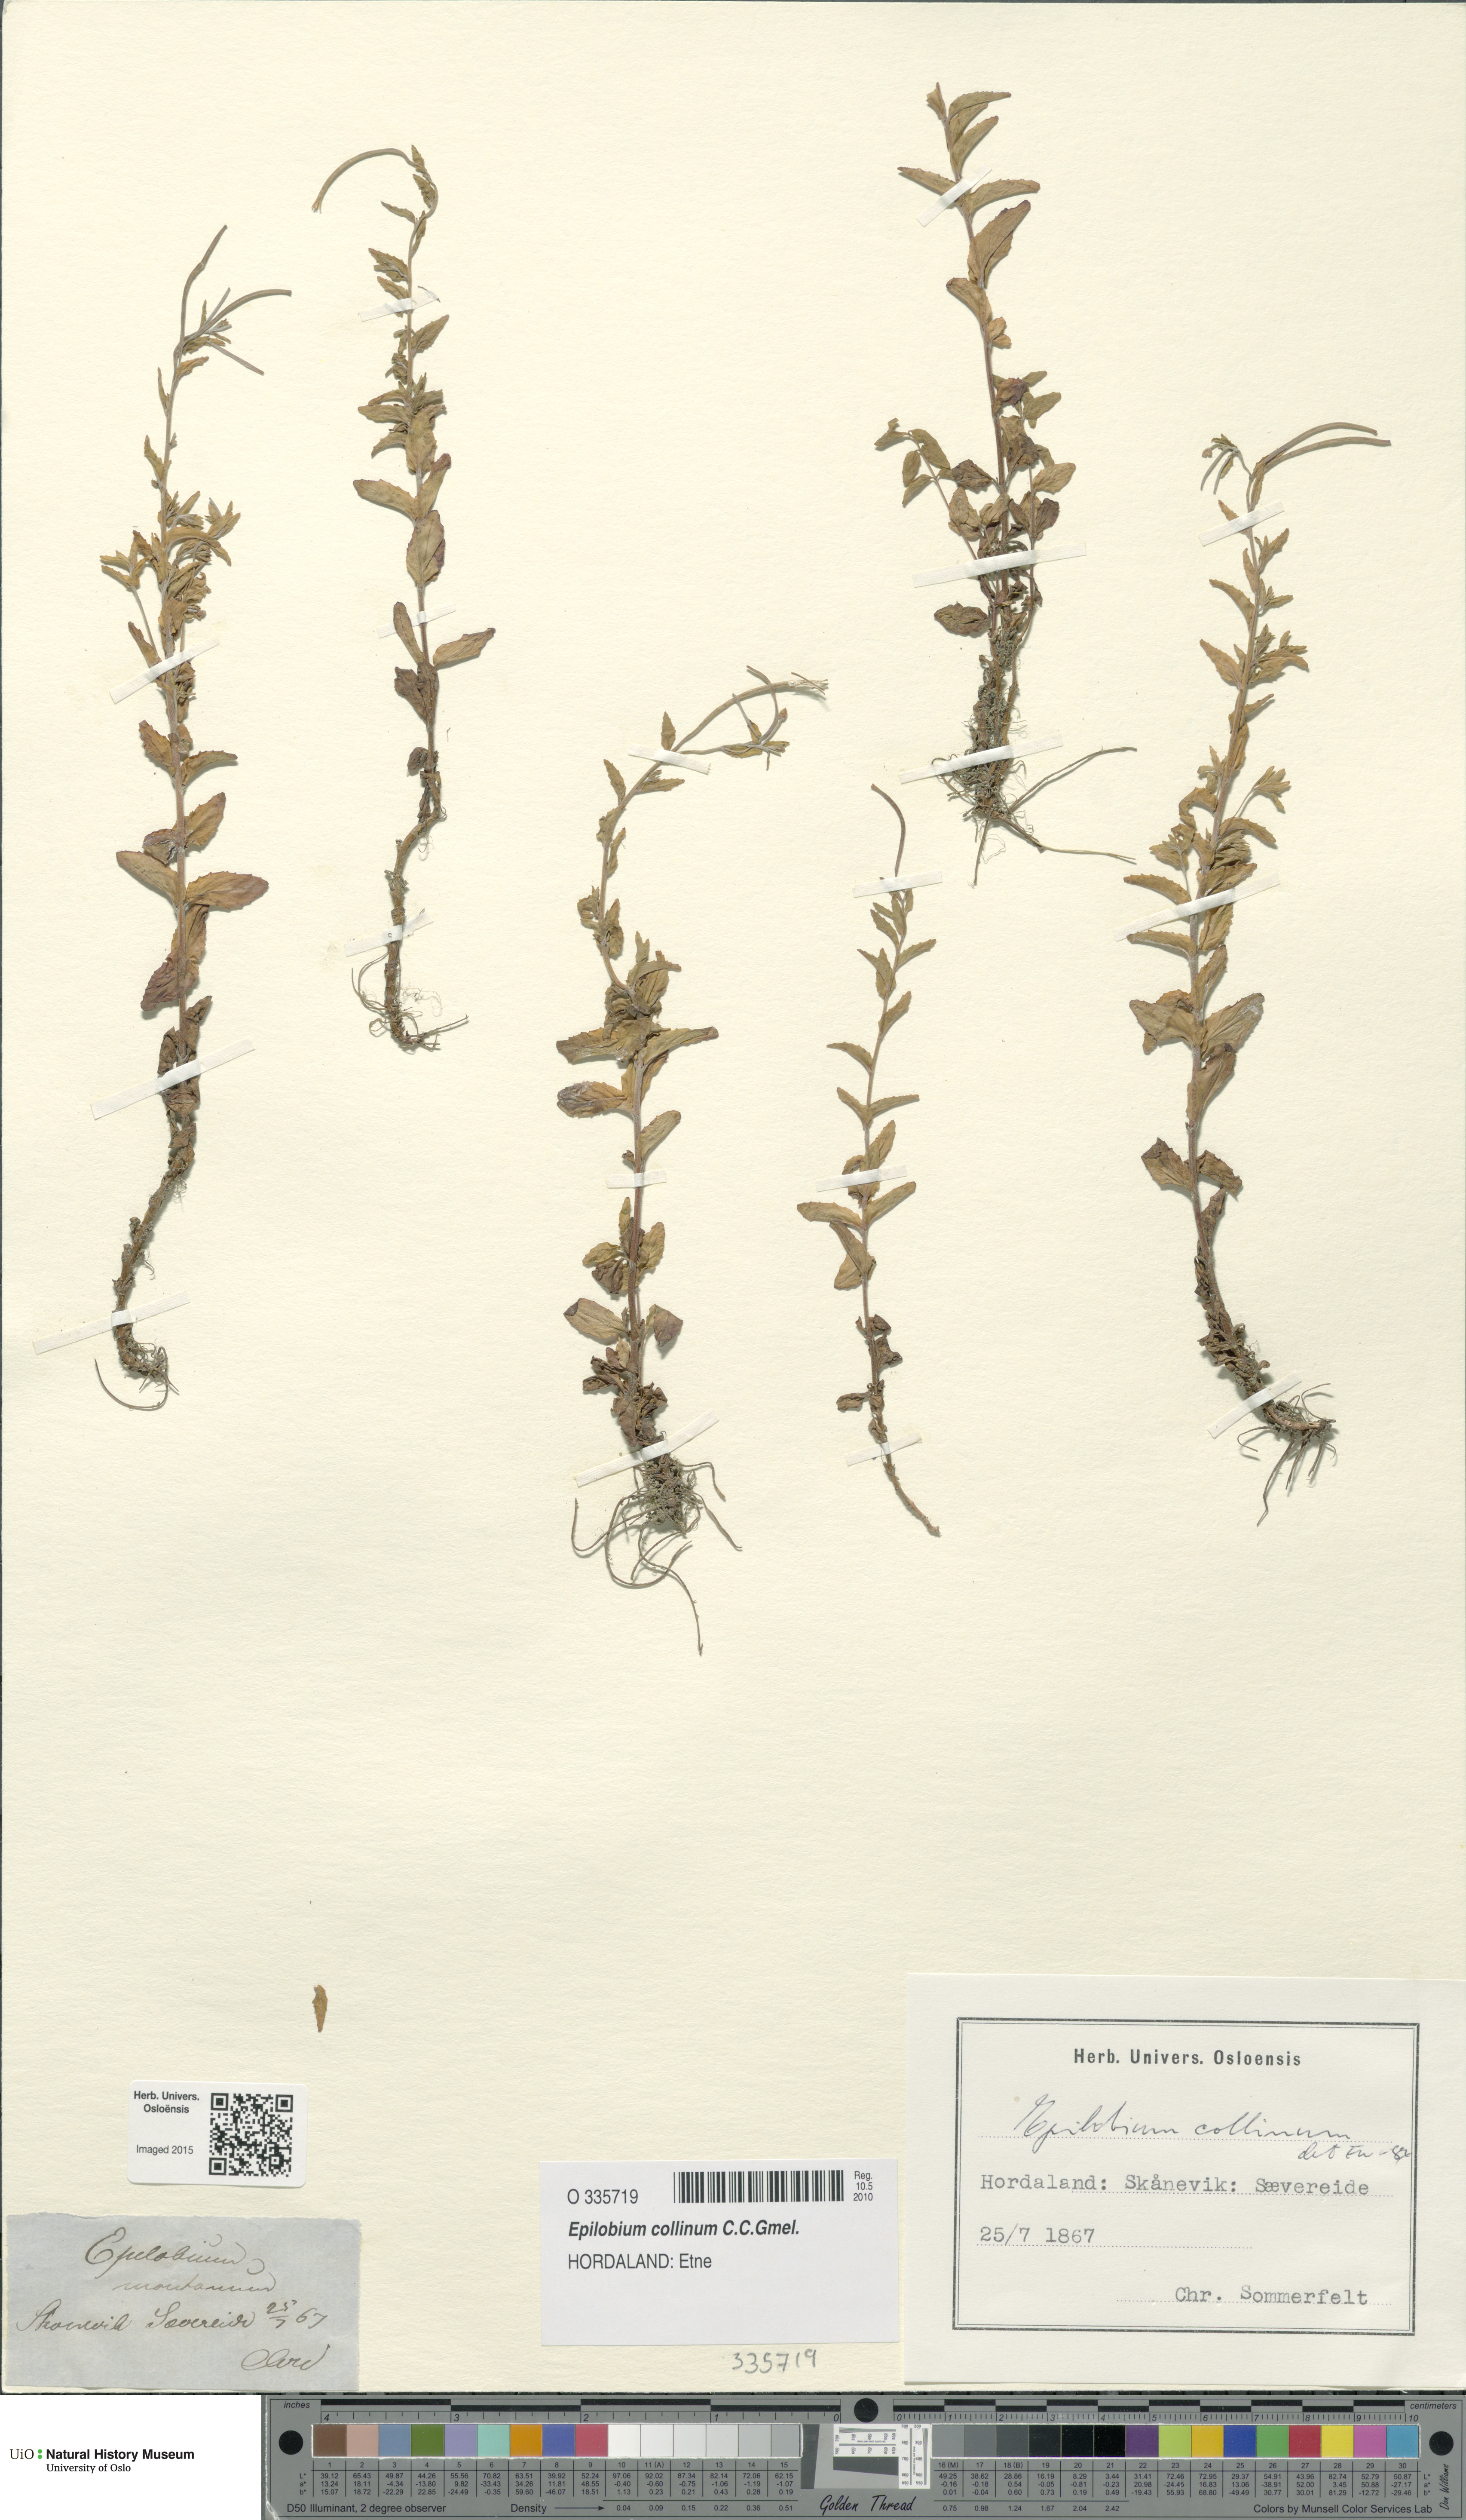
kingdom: Plantae
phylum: Tracheophyta
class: Magnoliopsida
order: Myrtales
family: Onagraceae
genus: Epilobium
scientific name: Epilobium collinum
